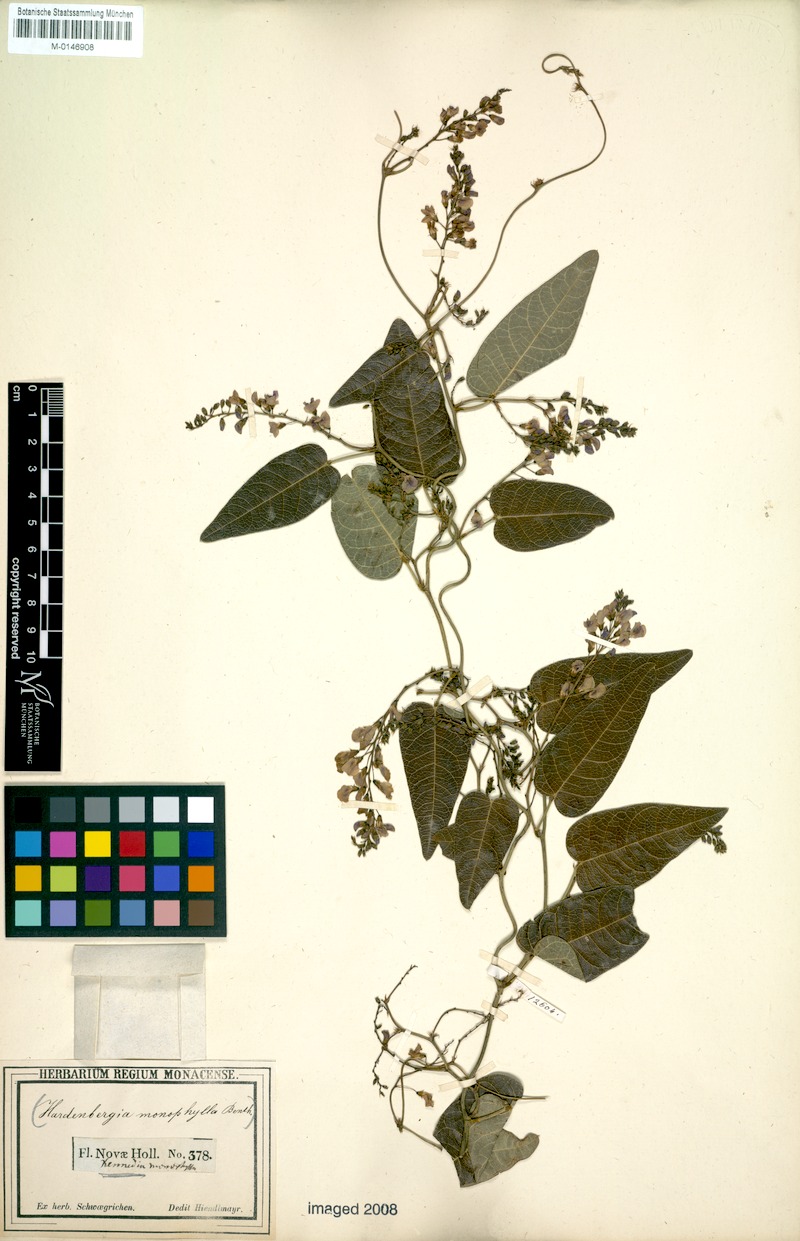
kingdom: Plantae
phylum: Tracheophyta
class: Magnoliopsida
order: Fabales
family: Fabaceae
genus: Hardenbergia
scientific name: Hardenbergia violacea
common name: Coral-pea
